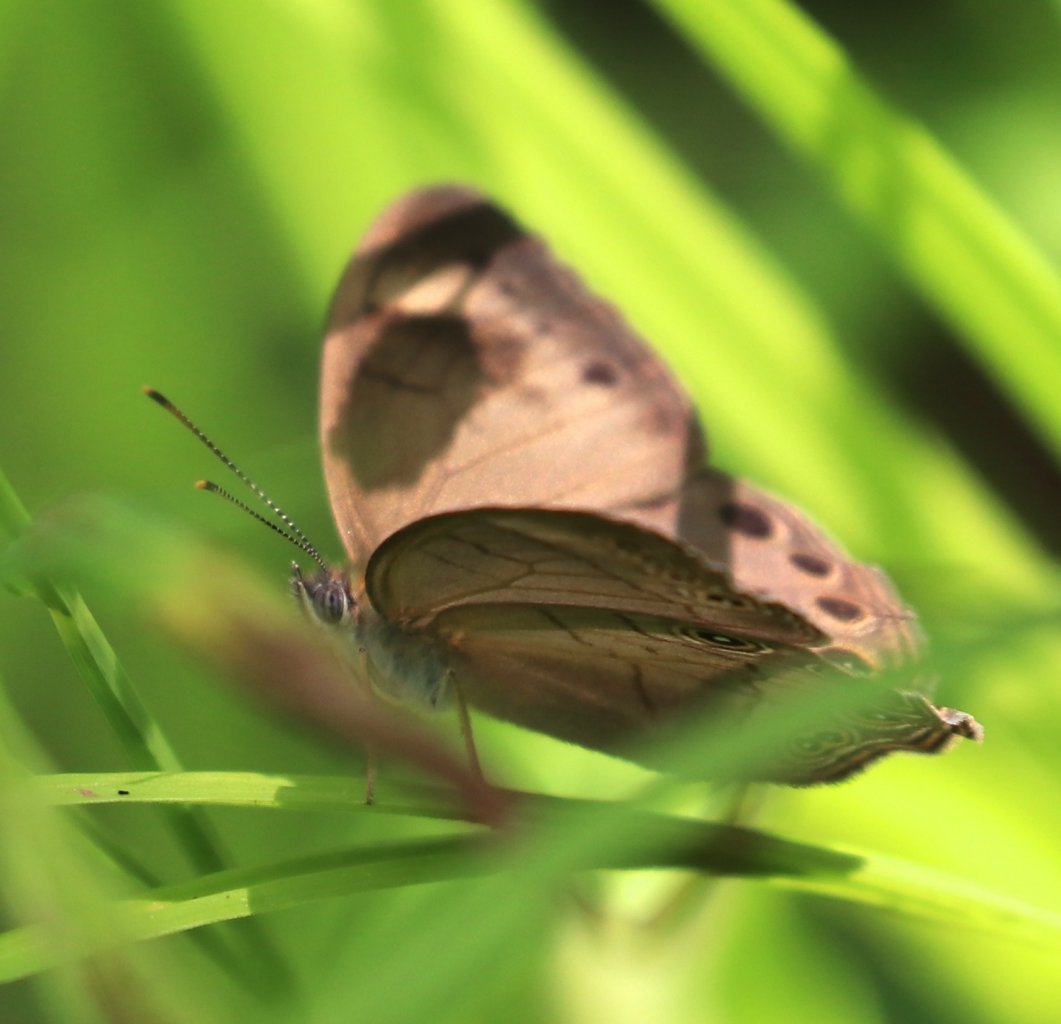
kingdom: Animalia
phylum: Arthropoda
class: Insecta
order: Lepidoptera
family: Nymphalidae
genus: Lethe
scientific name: Lethe eurydice
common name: Appalachian Eyed Brown
